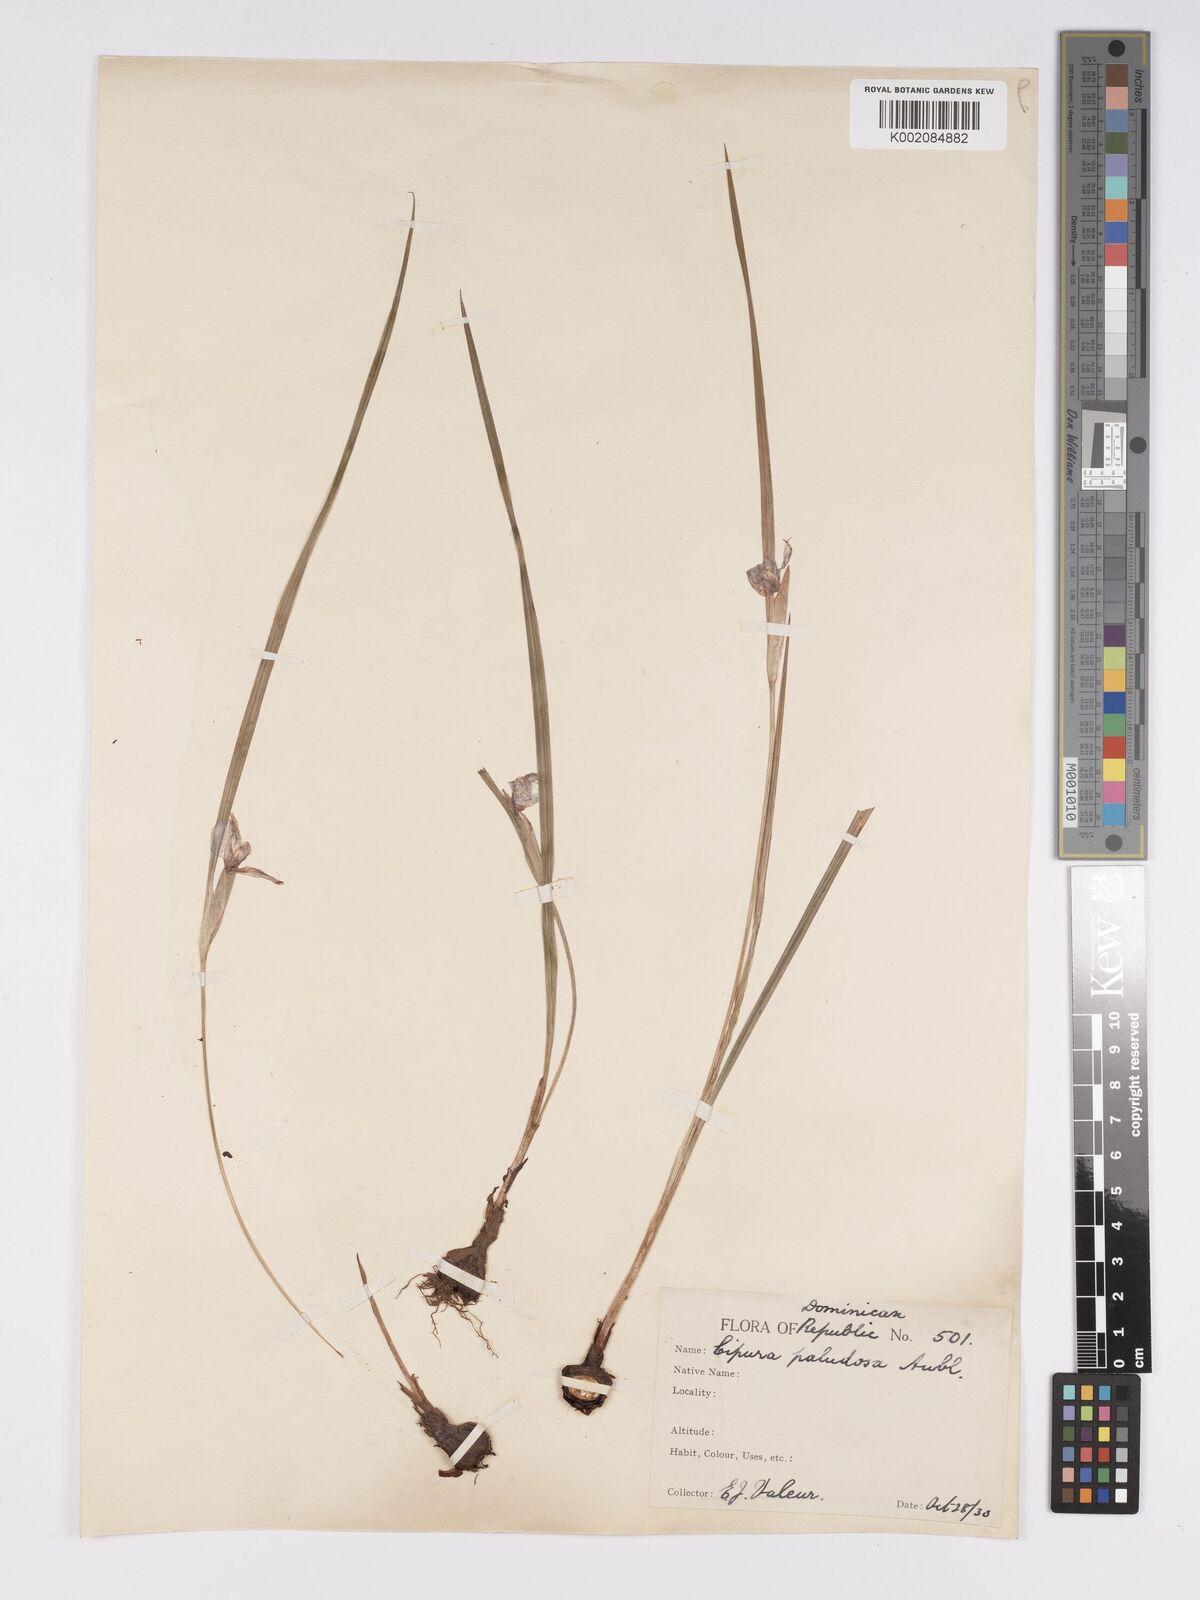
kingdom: Plantae
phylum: Tracheophyta
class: Liliopsida
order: Asparagales
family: Iridaceae
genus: Cipura
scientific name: Cipura paludosa
